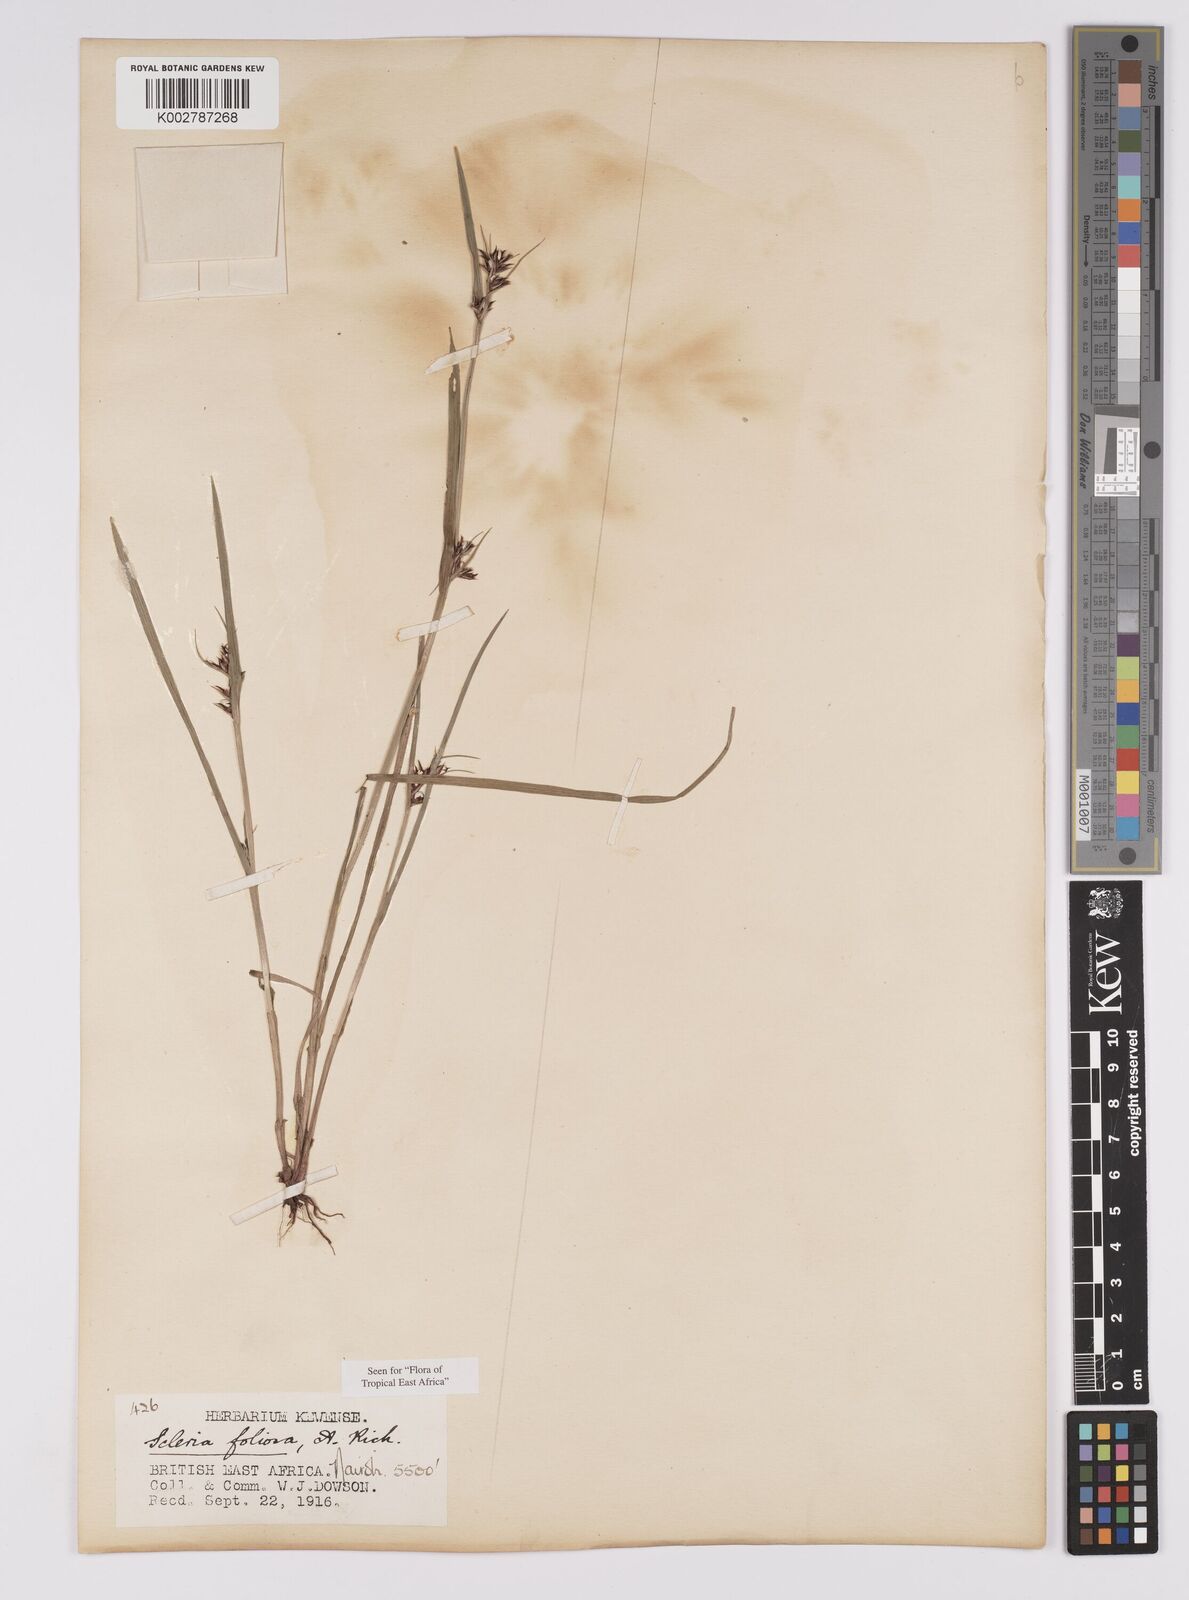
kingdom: Plantae
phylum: Tracheophyta
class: Liliopsida
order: Poales
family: Cyperaceae
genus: Scleria
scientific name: Scleria foliosa
